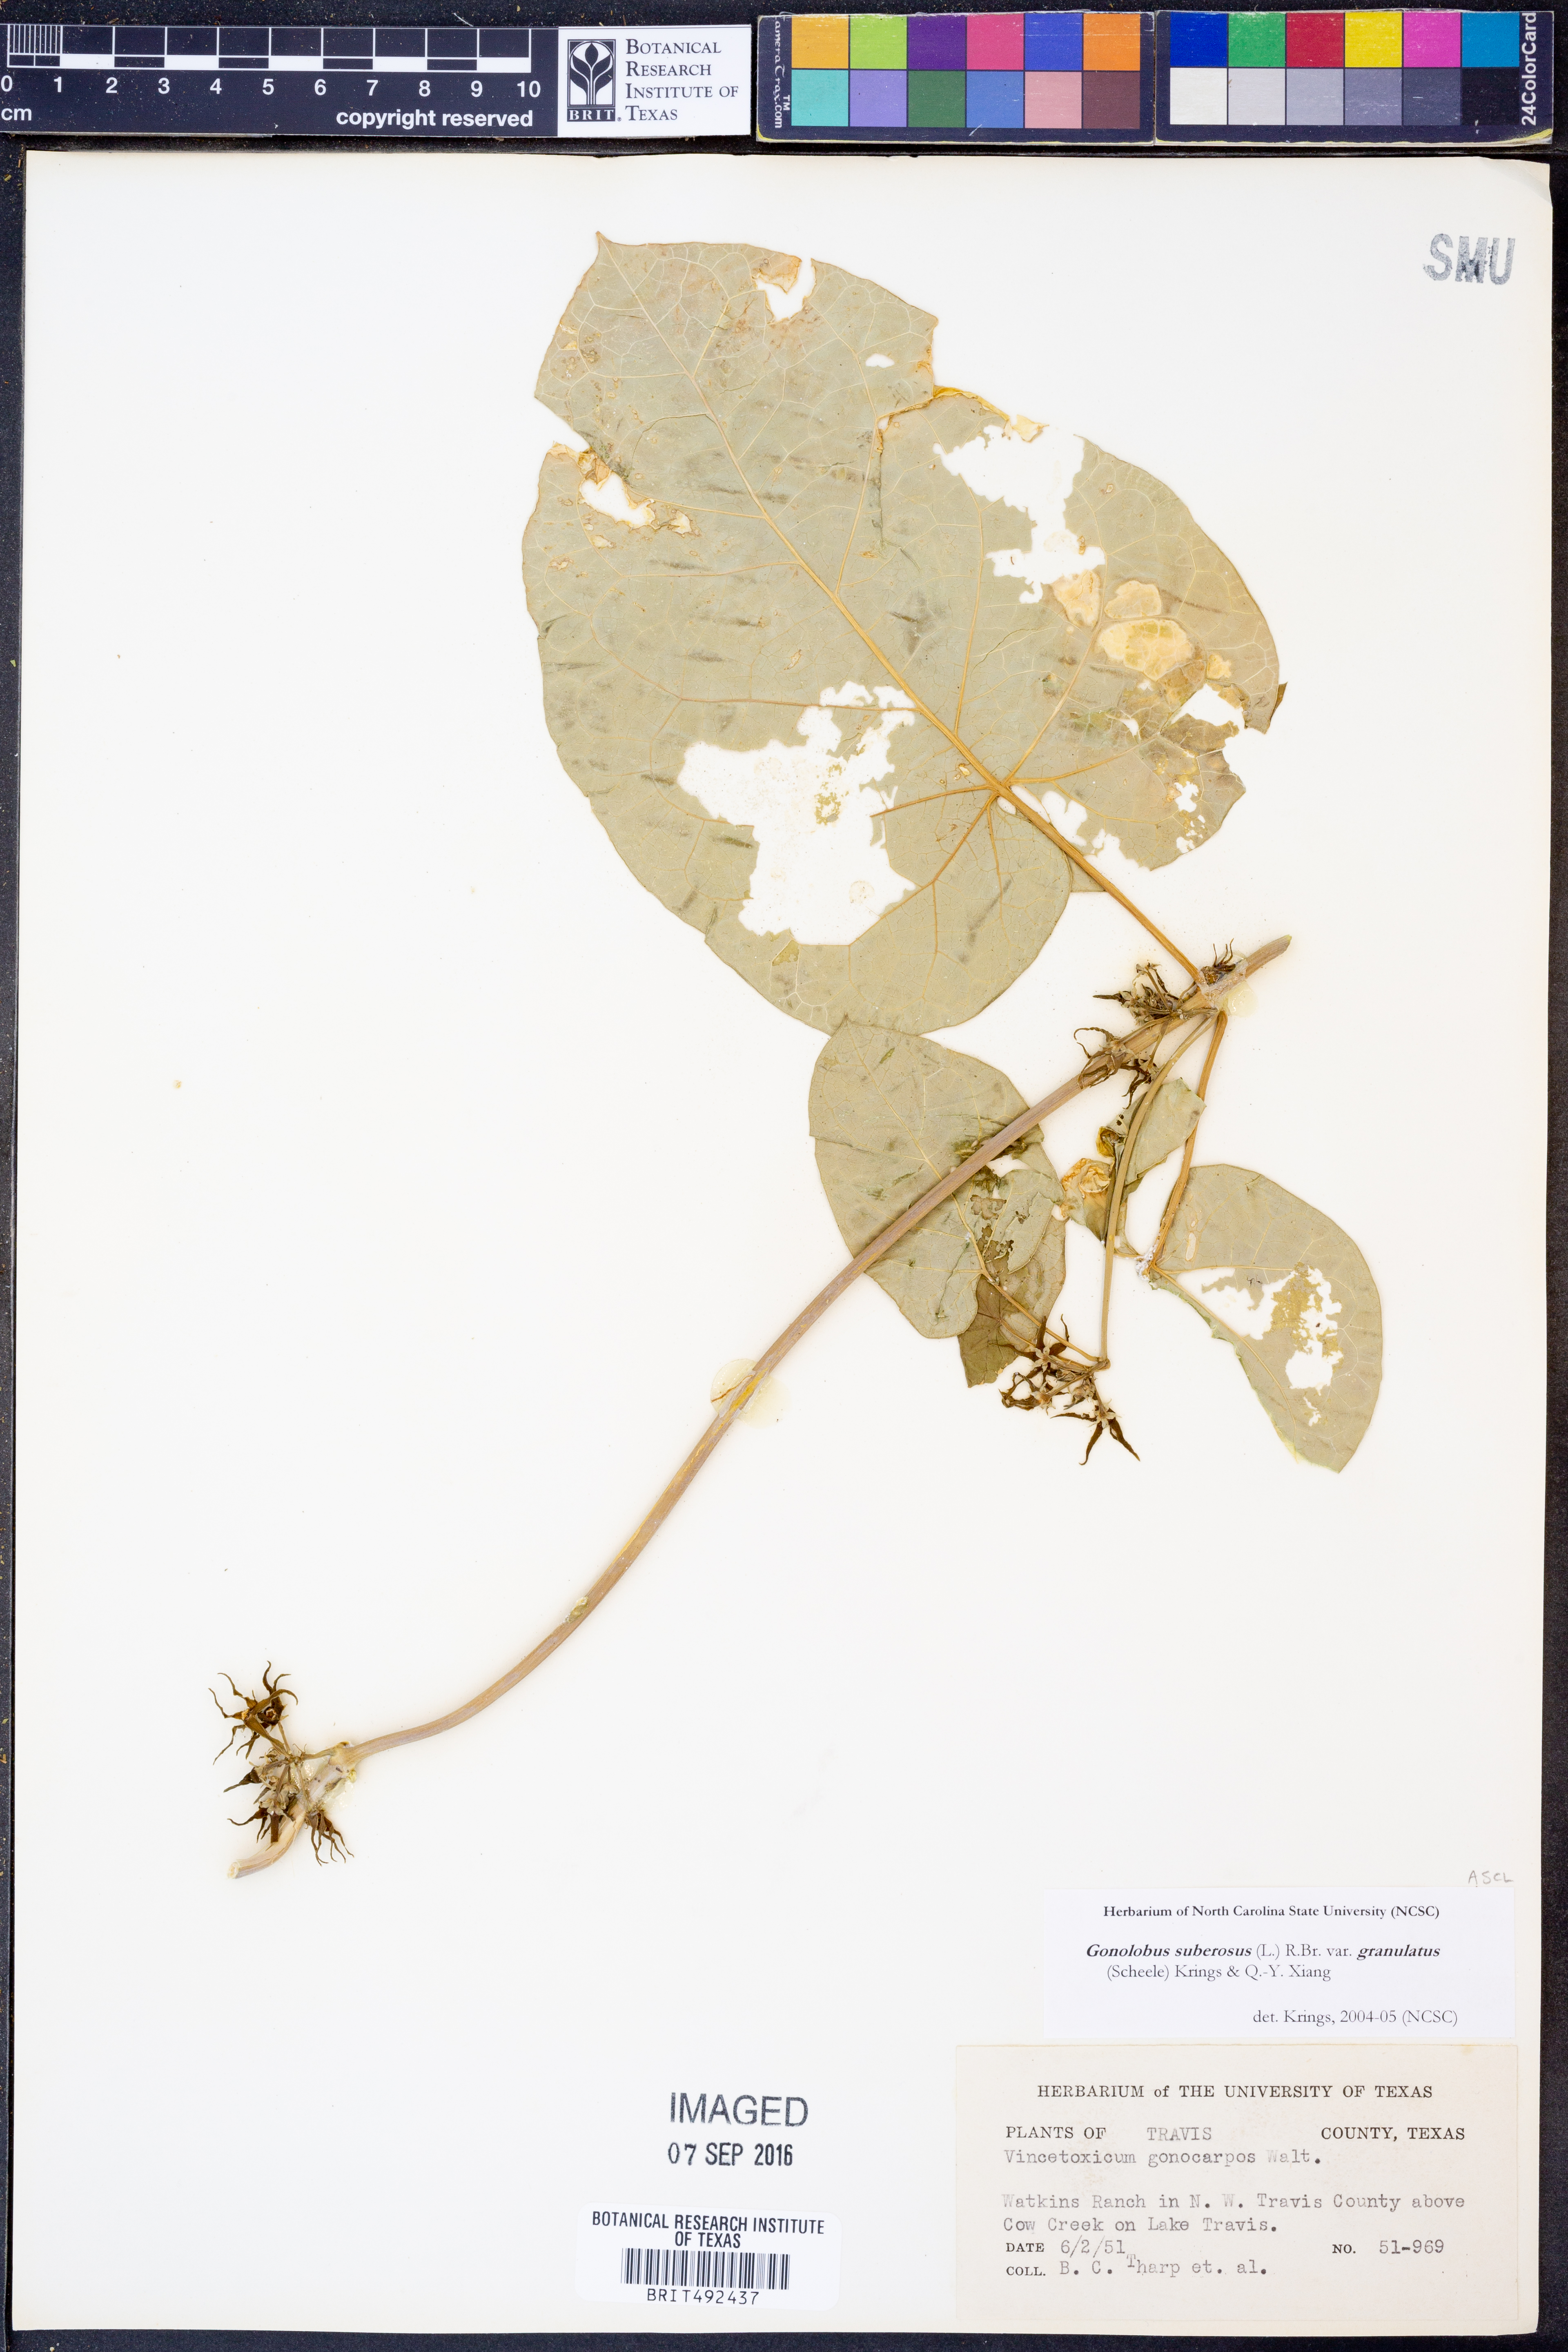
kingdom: Plantae
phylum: Tracheophyta
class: Magnoliopsida
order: Gentianales
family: Apocynaceae
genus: Gonolobus
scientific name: Gonolobus suberosus
